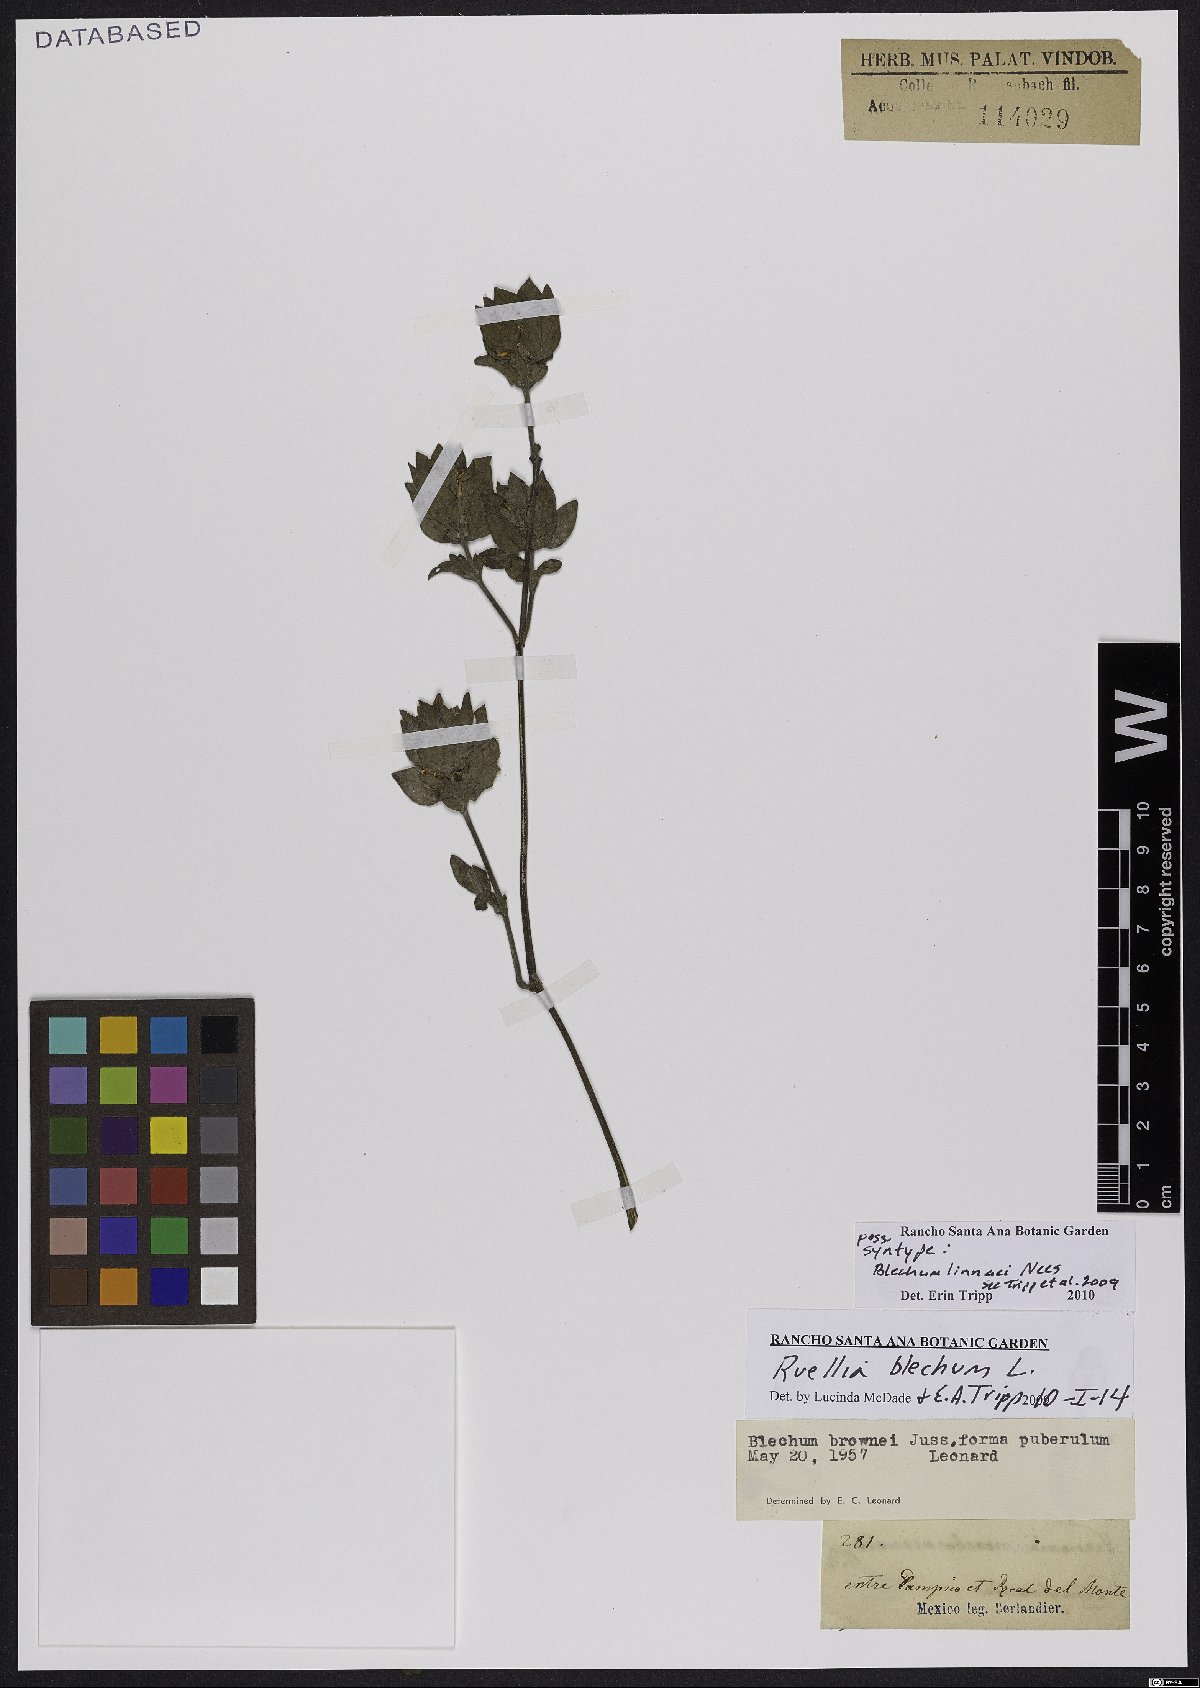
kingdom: Plantae
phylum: Tracheophyta
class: Magnoliopsida
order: Lamiales
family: Acanthaceae
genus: Ruellia
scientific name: Ruellia blechum
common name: Browne's blechum
